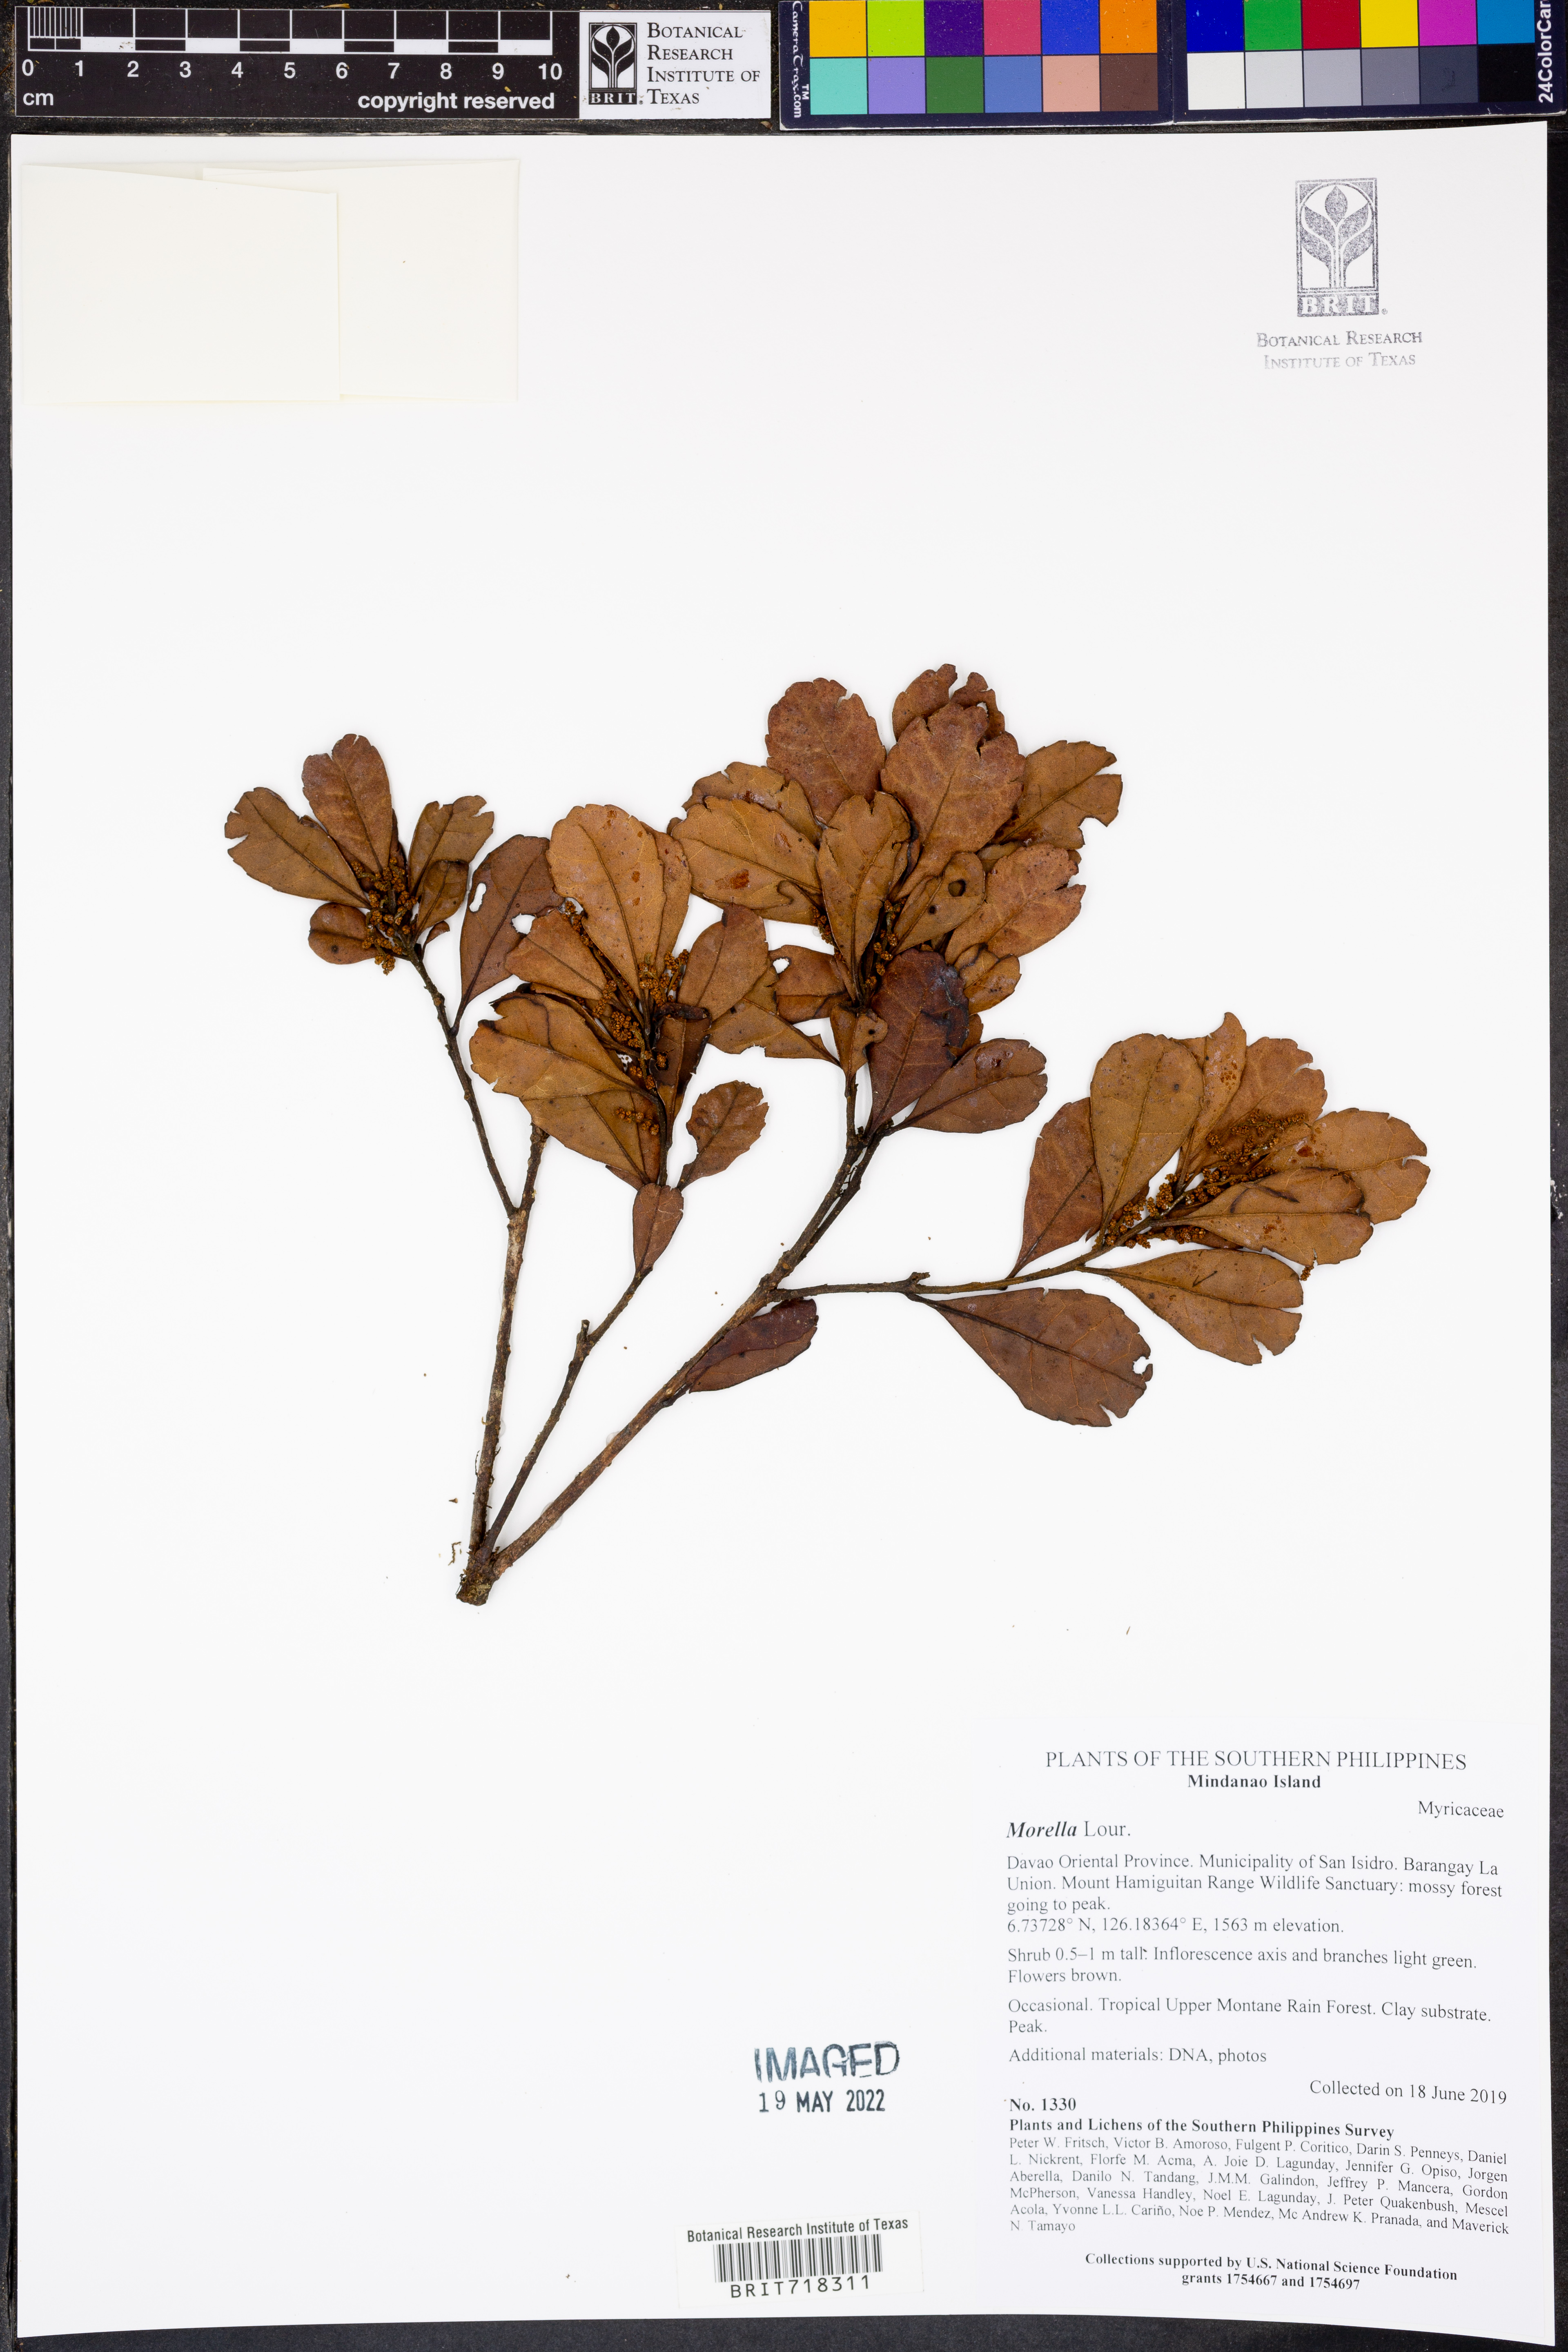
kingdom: Plantae
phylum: Tracheophyta
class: Magnoliopsida
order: Fagales
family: Myricaceae
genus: Morella
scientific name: Morella
